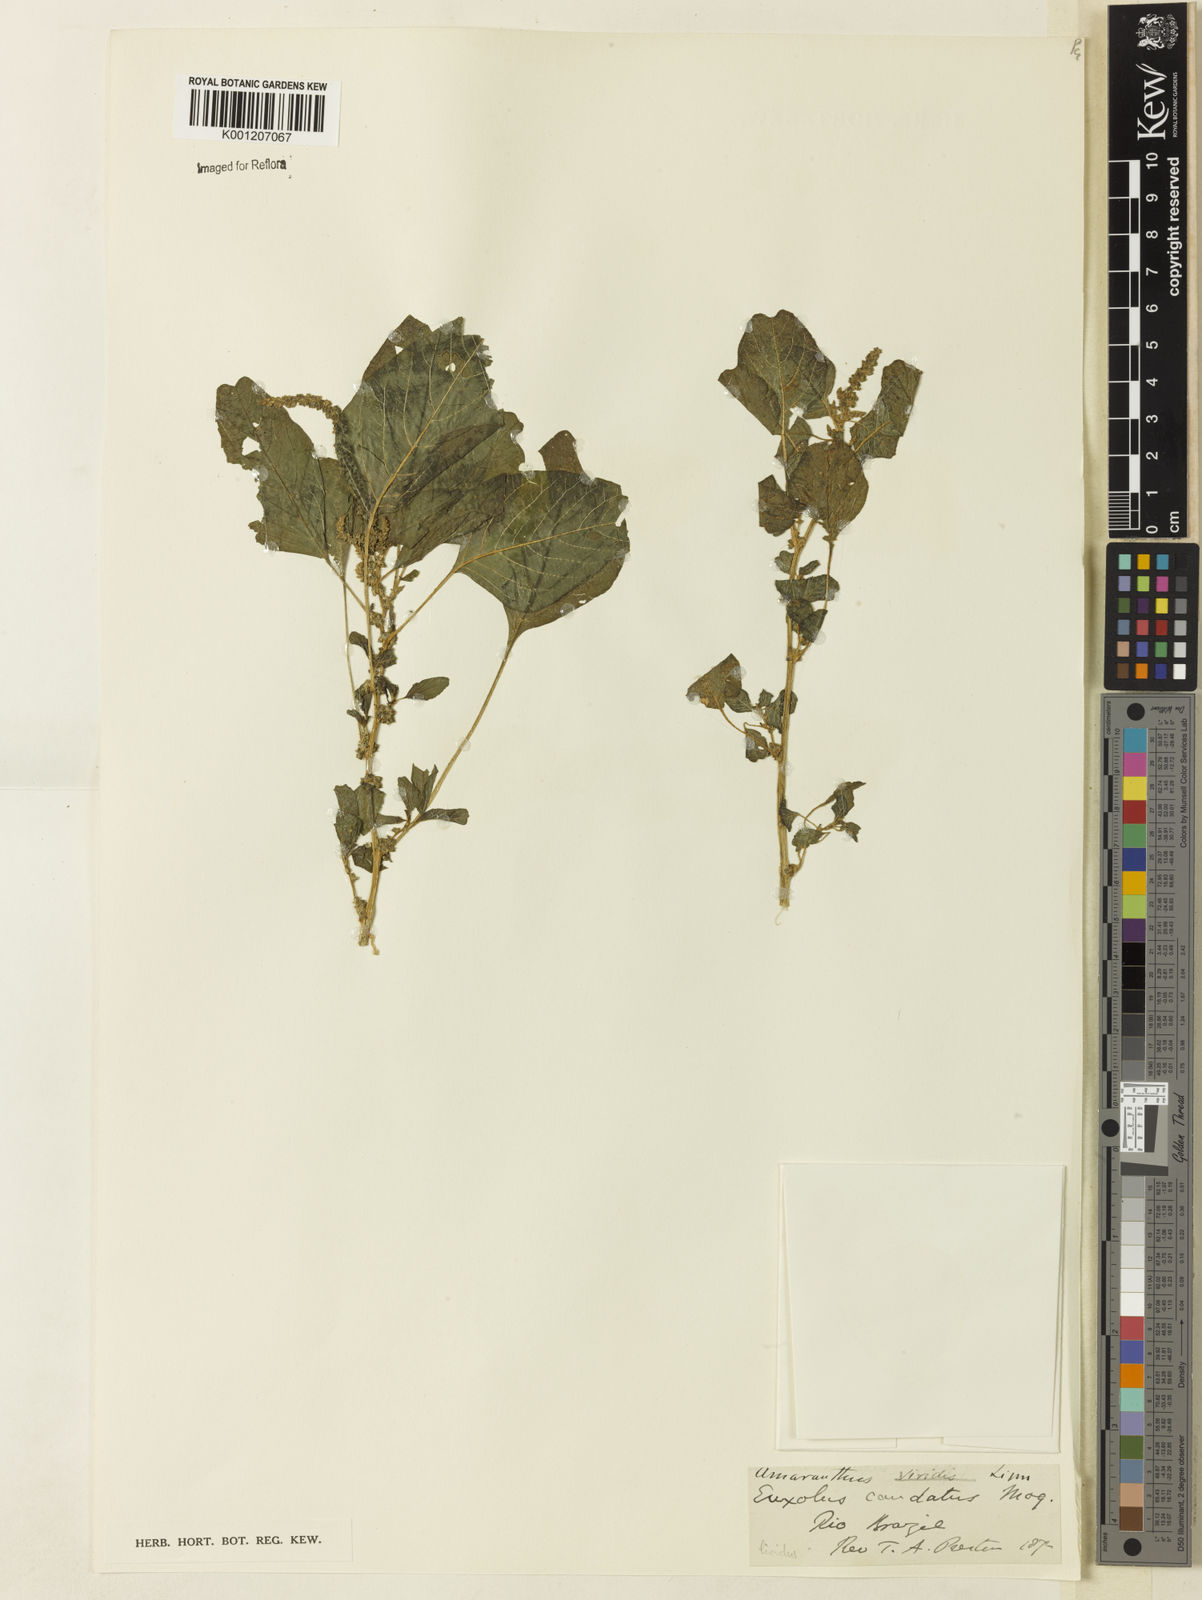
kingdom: Plantae
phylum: Tracheophyta
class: Magnoliopsida
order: Caryophyllales
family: Amaranthaceae
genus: Amaranthus
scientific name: Amaranthus blitum
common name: Purple amaranth
